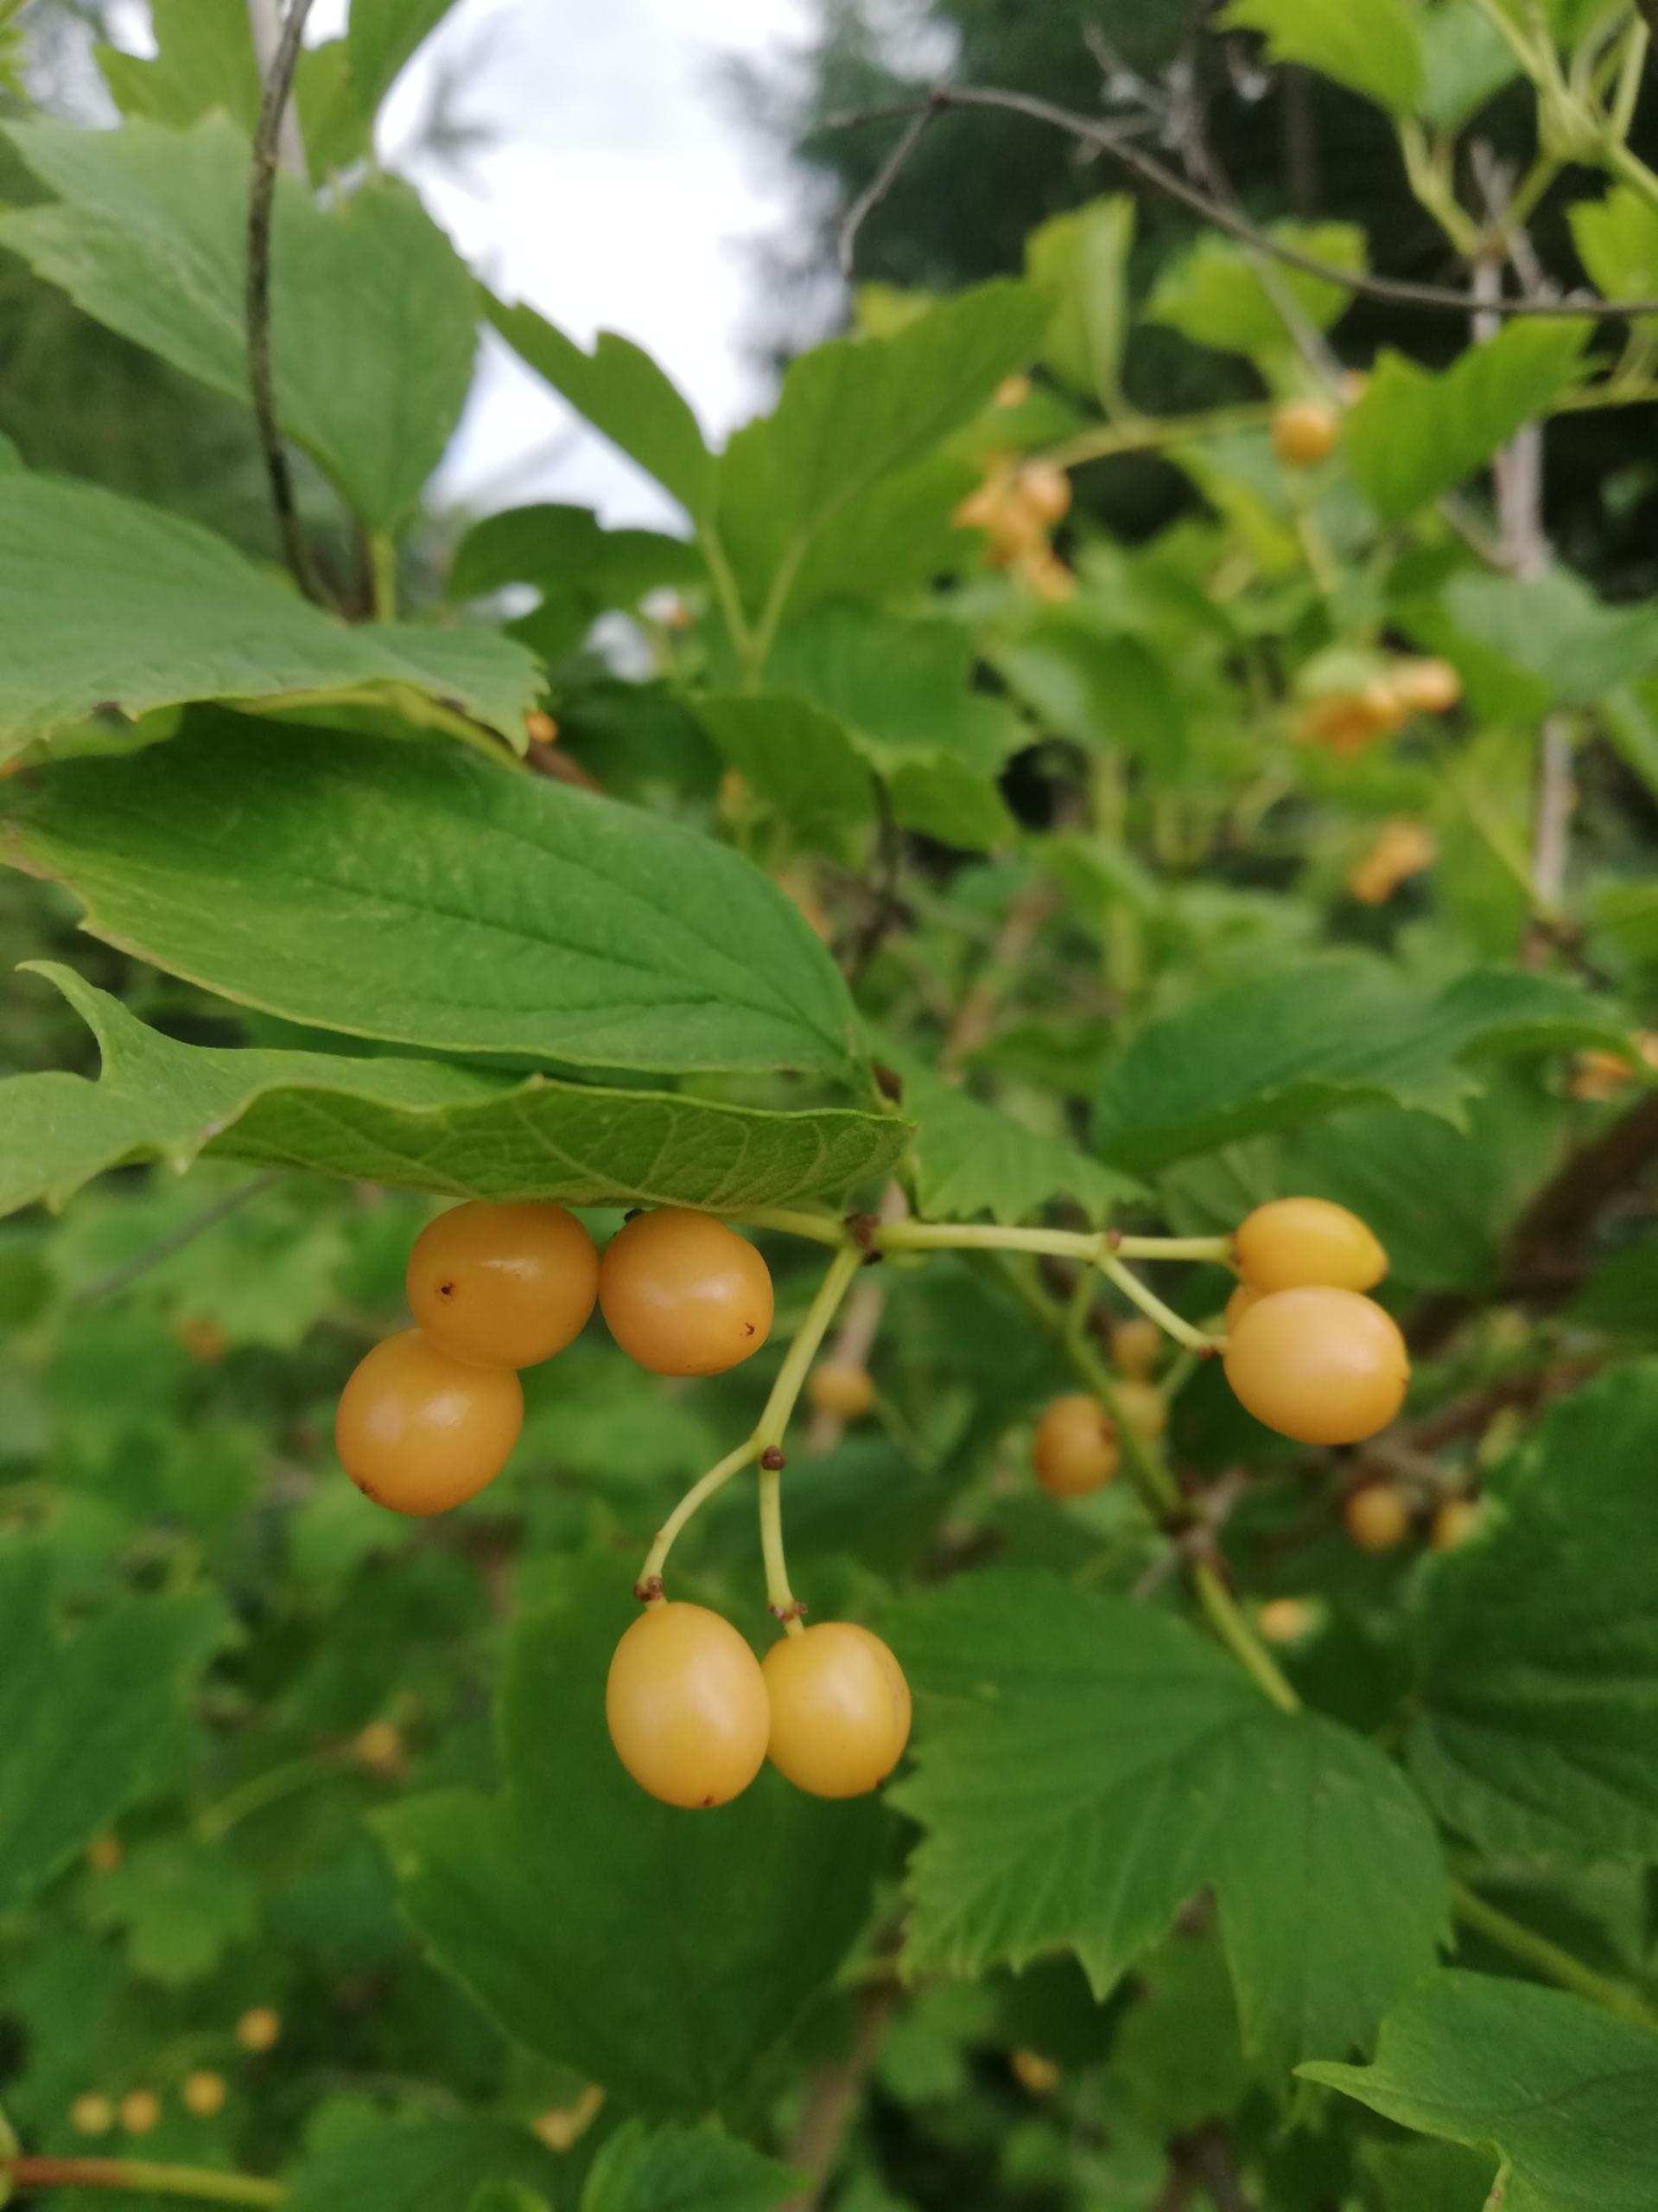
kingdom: Plantae
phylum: Tracheophyta
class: Magnoliopsida
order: Dipsacales
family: Viburnaceae
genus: Viburnum
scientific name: Viburnum opulus
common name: Kvalkved
